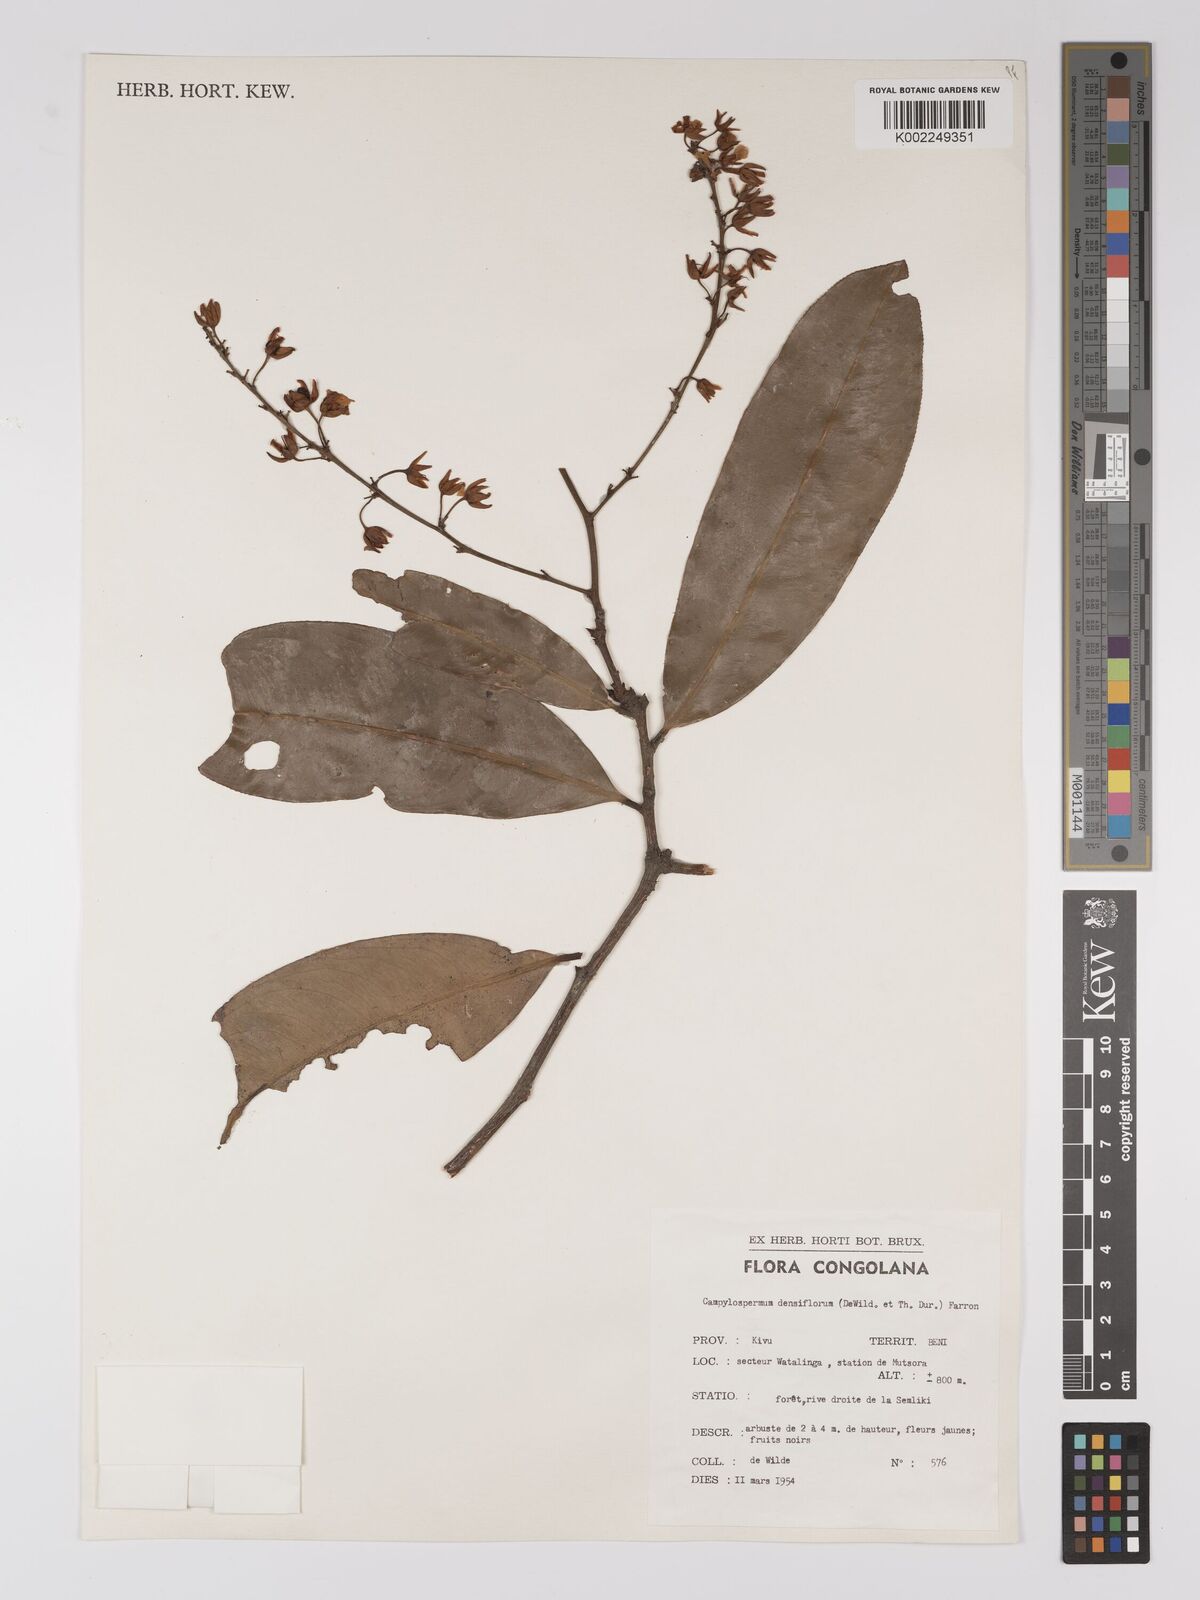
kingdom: Plantae
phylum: Tracheophyta
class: Magnoliopsida
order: Malpighiales
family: Ochnaceae
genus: Gomphia
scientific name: Gomphia densiflora
